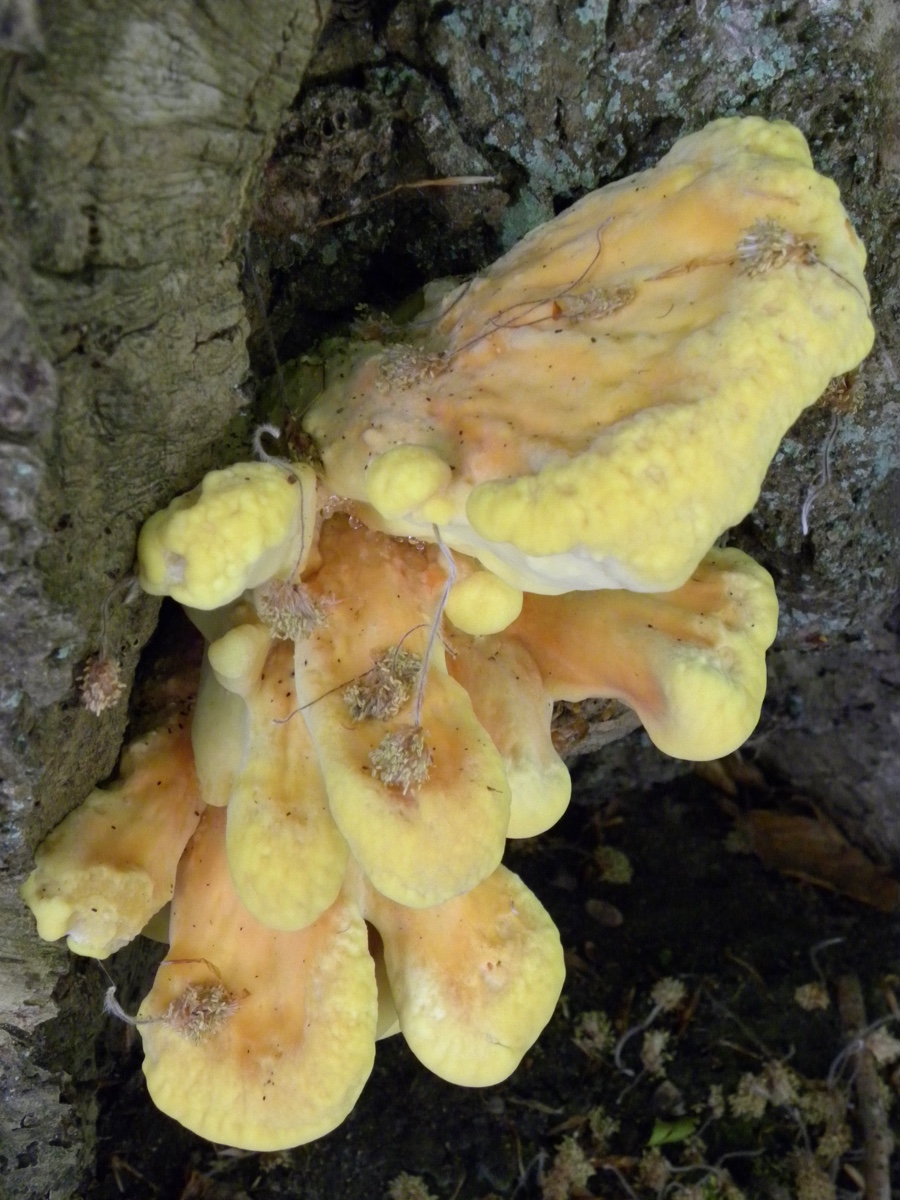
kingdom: Fungi
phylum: Basidiomycota
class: Agaricomycetes
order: Polyporales
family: Laetiporaceae
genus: Laetiporus
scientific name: Laetiporus sulphureus
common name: svovlporesvamp
